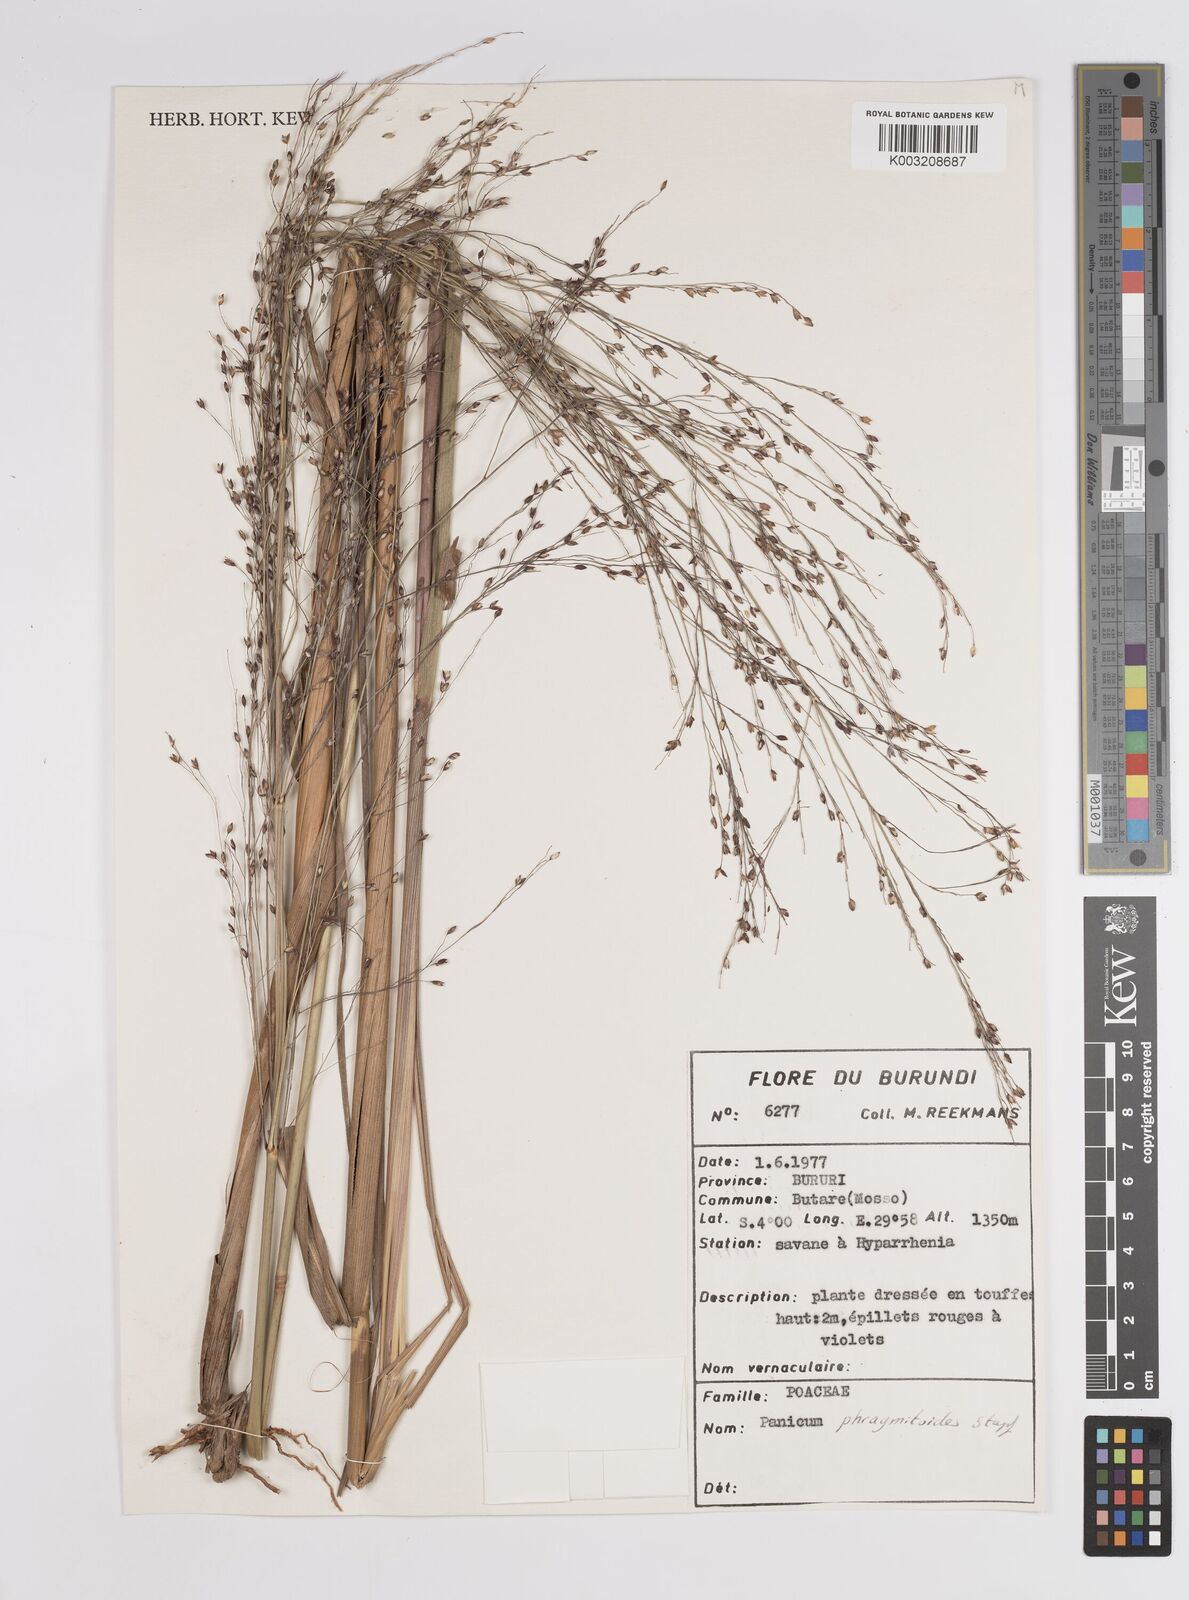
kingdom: Plantae
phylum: Tracheophyta
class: Liliopsida
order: Poales
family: Poaceae
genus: Panicum
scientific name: Panicum phragmitoides
